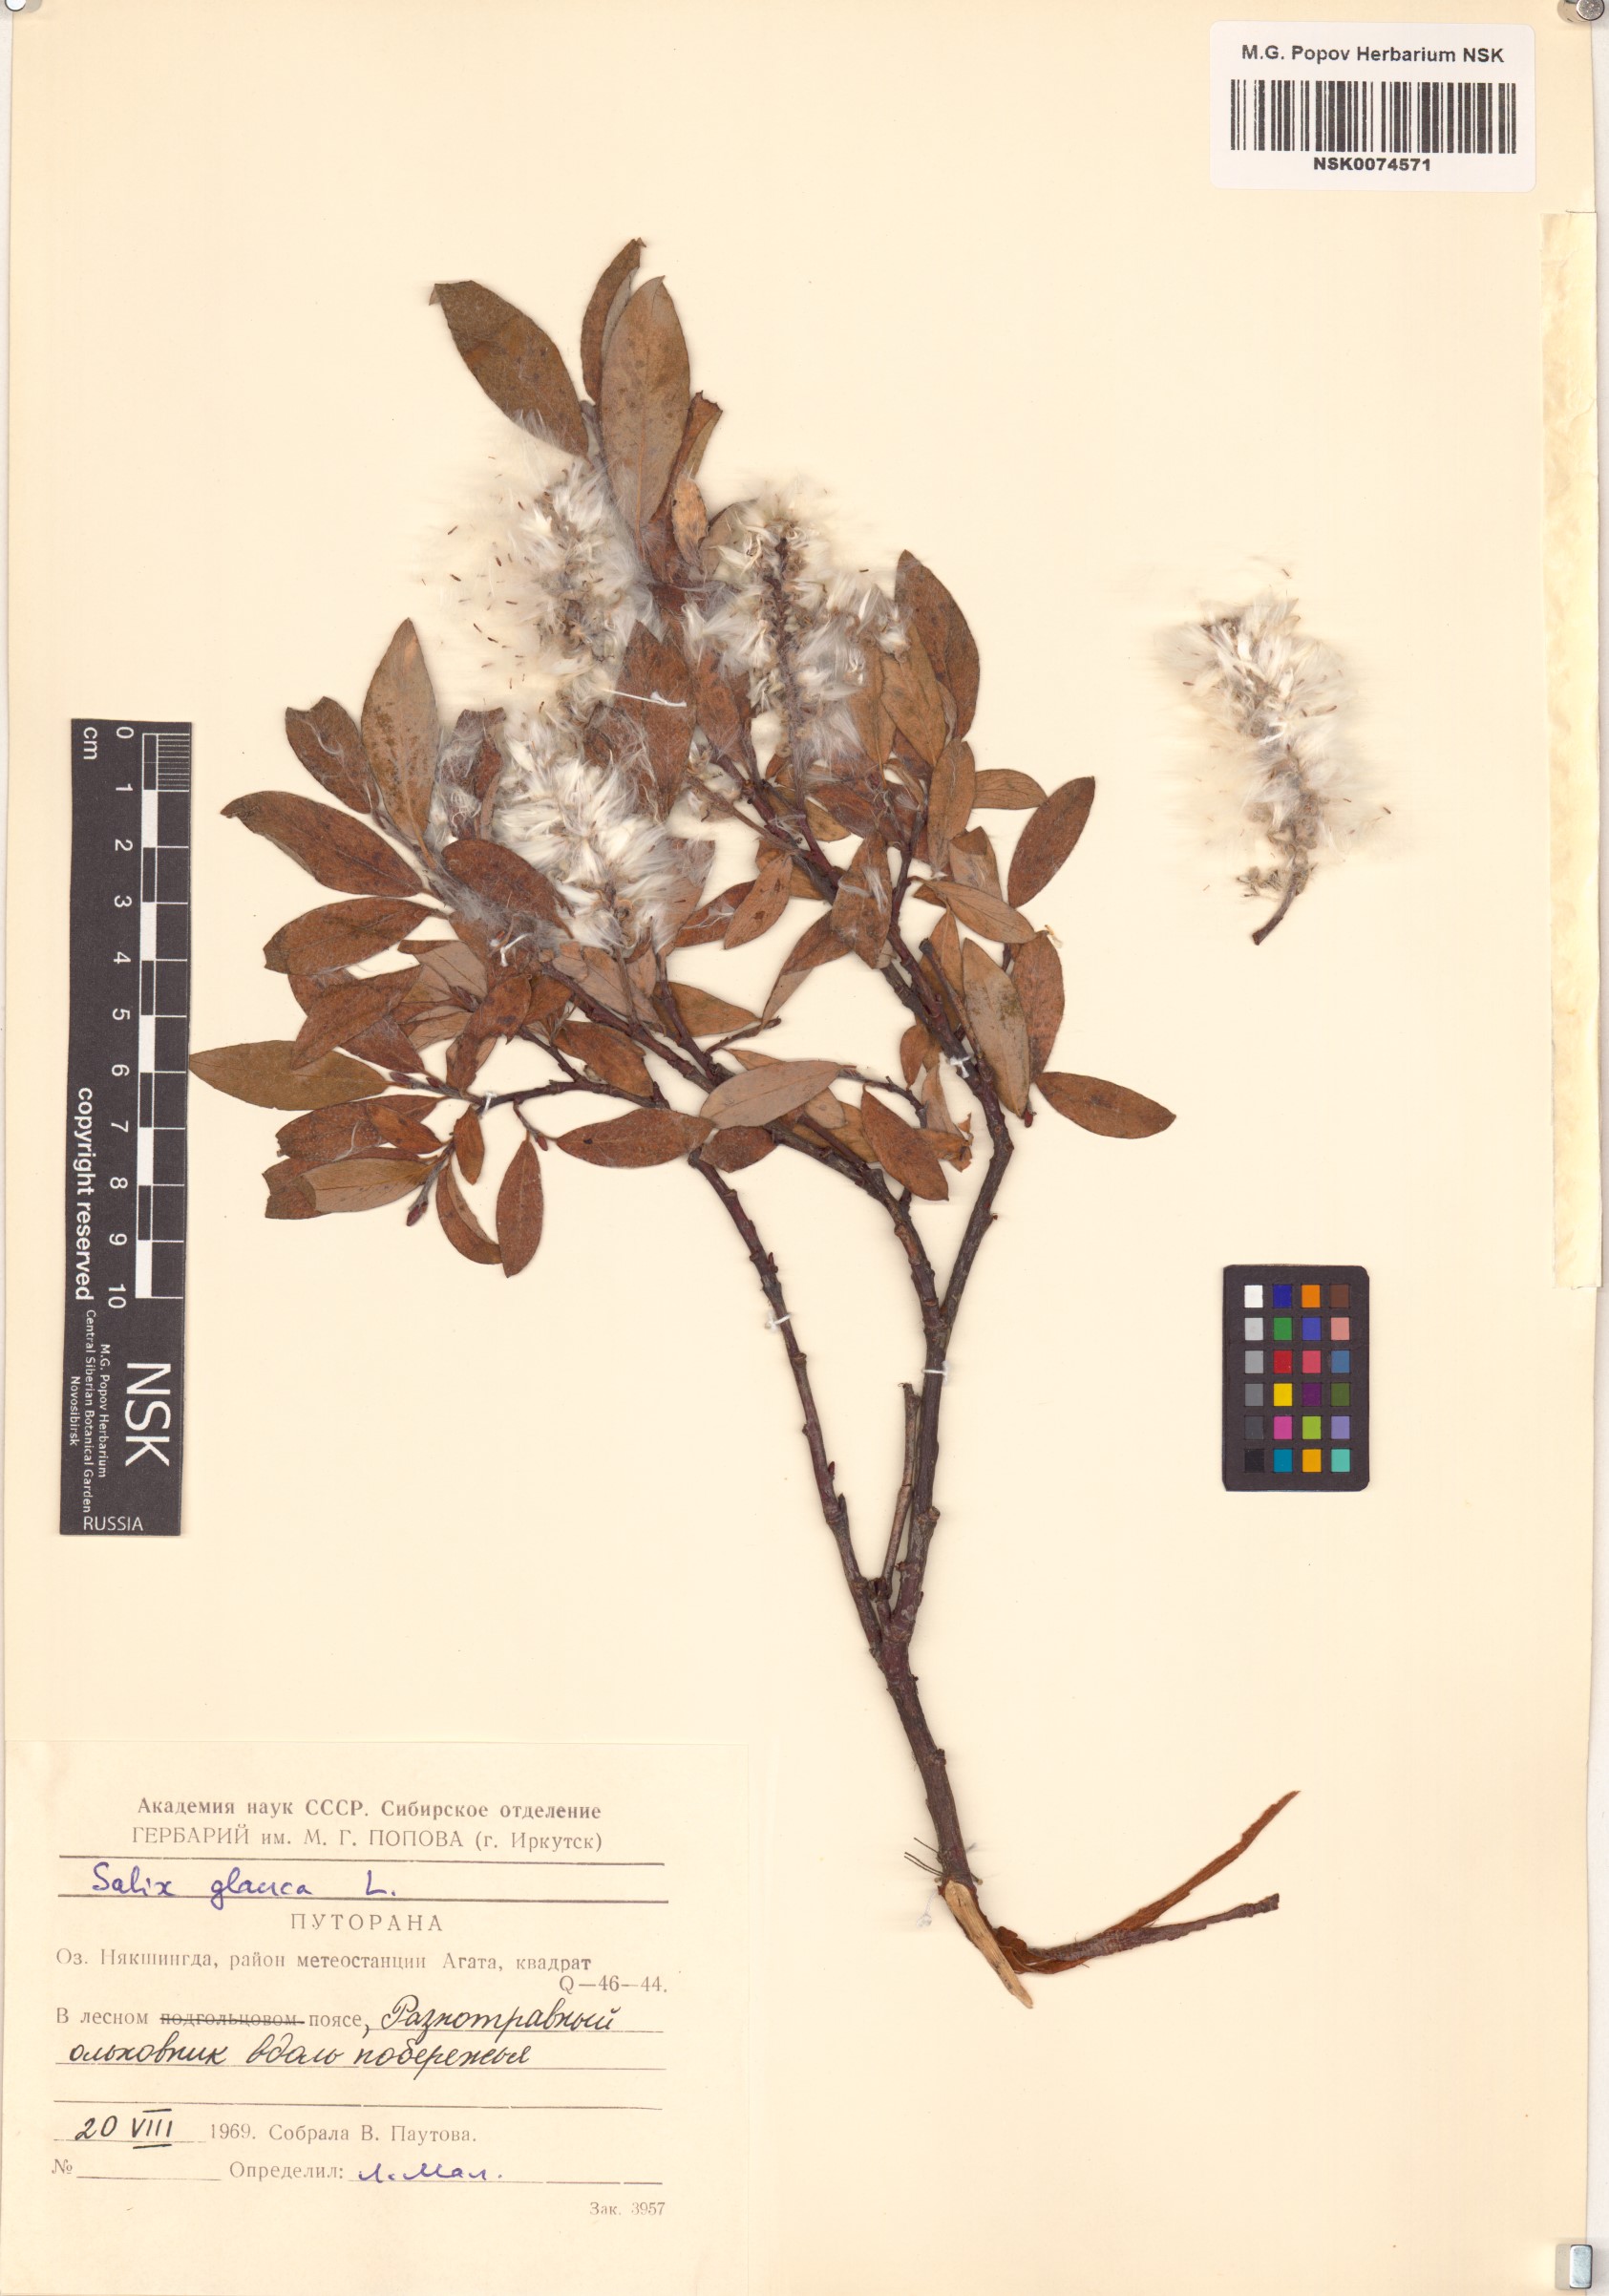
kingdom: Plantae
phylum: Tracheophyta
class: Magnoliopsida
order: Malpighiales
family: Salicaceae
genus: Salix
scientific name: Salix glauca
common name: Glaucous willow
